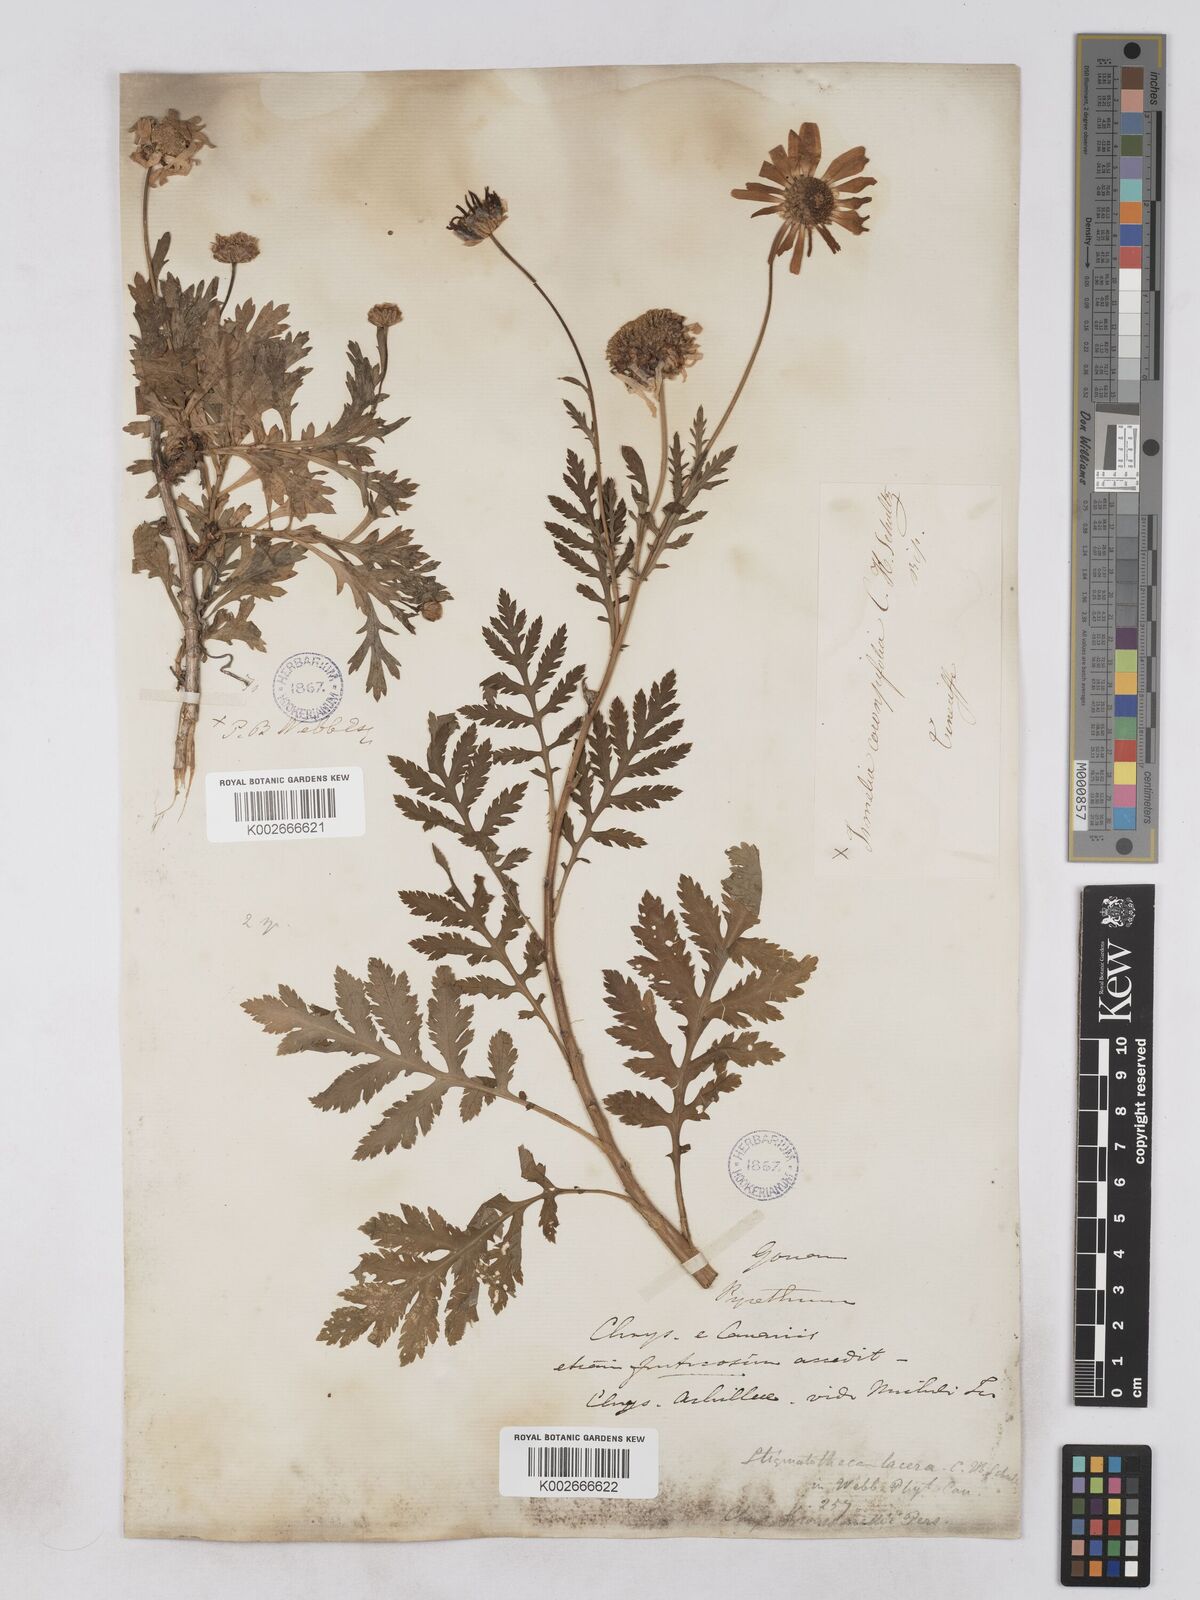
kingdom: Plantae
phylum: Tracheophyta
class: Magnoliopsida
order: Asterales
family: Asteraceae
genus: Argyranthemum
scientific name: Argyranthemum broussonetii
